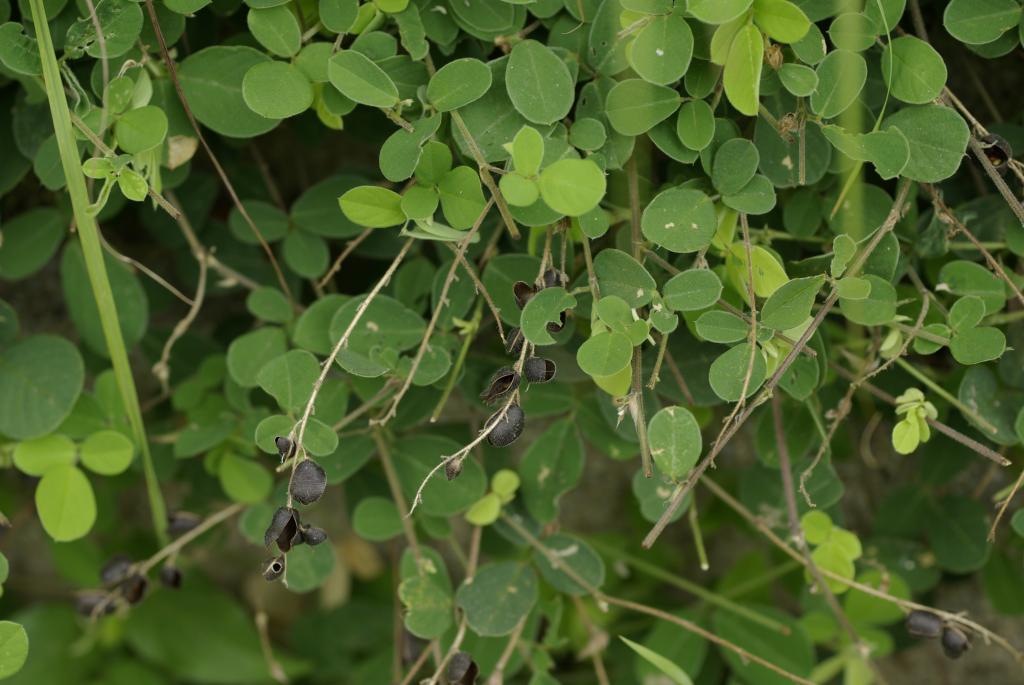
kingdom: Plantae
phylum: Tracheophyta
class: Magnoliopsida
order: Fabales
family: Fabaceae
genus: Pycnospora
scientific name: Pycnospora lutescens
